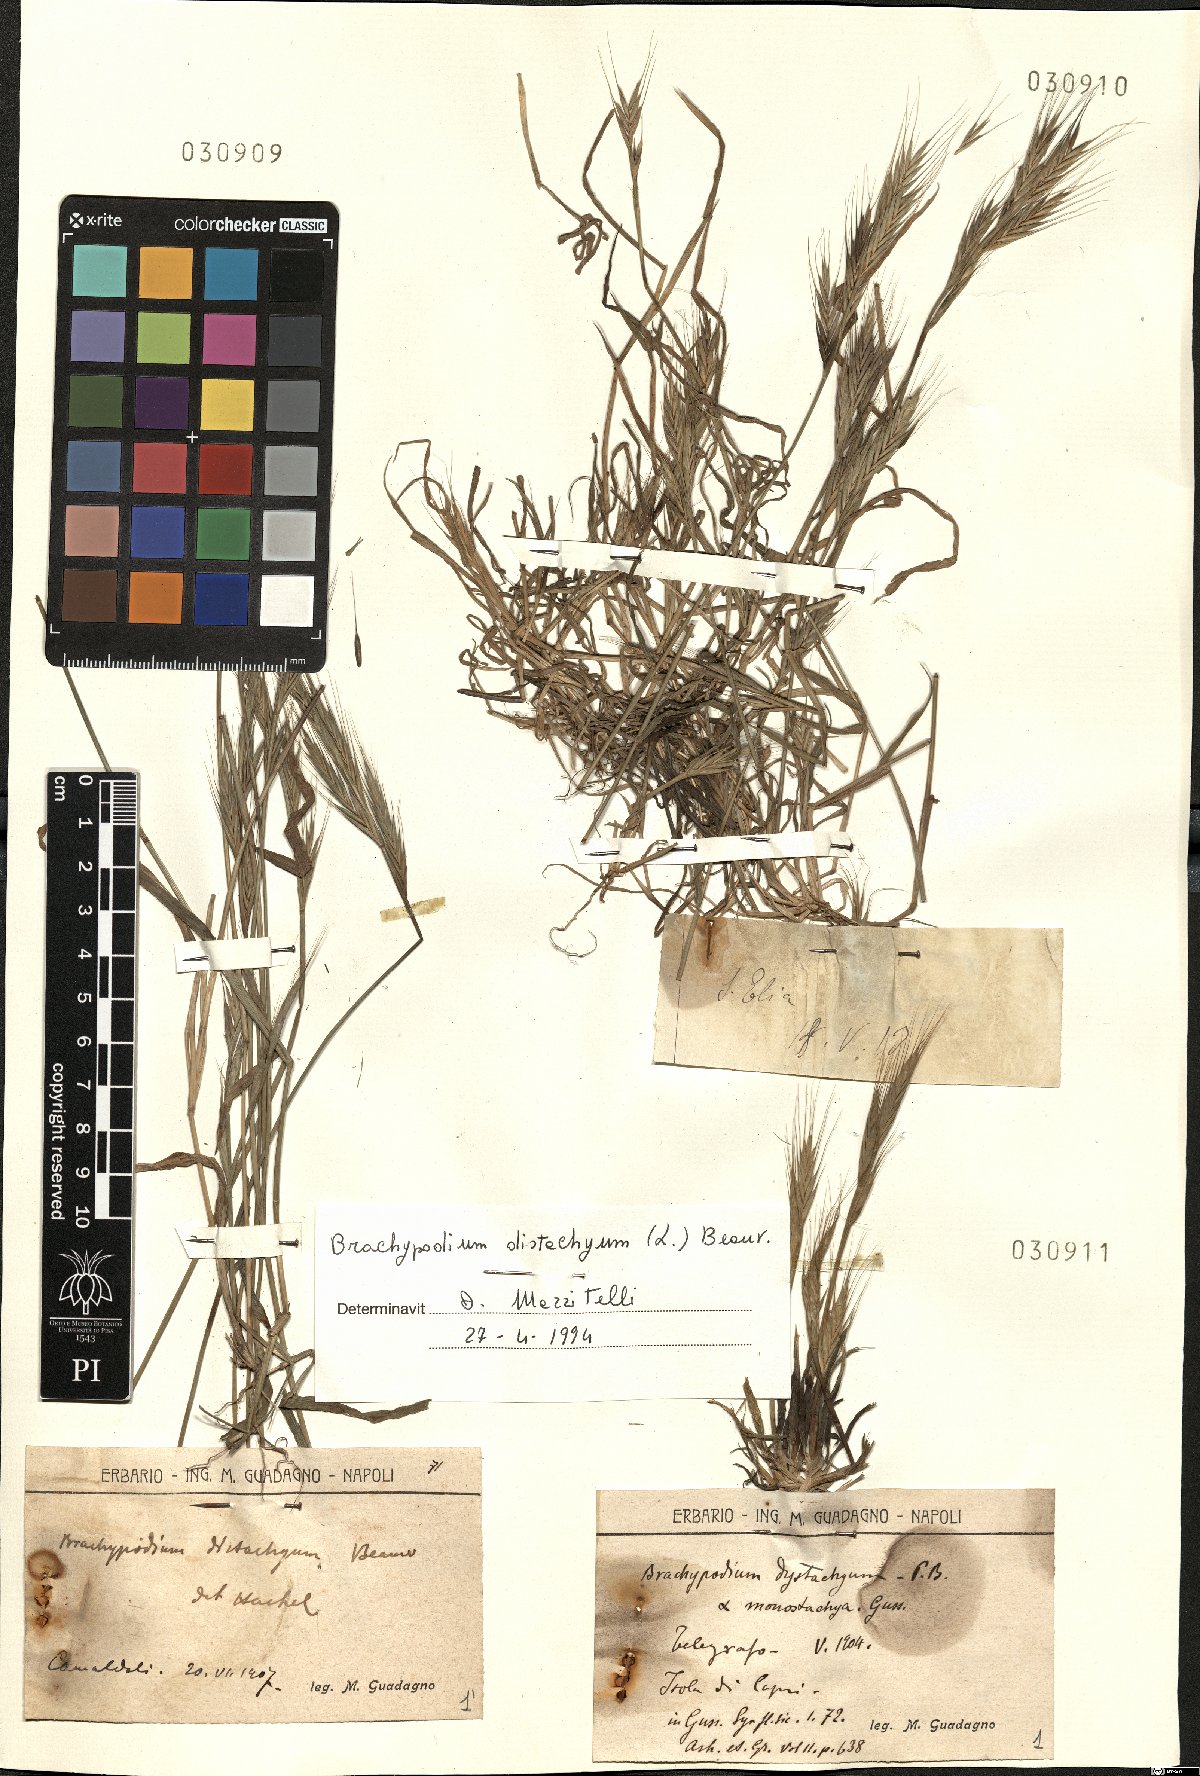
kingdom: Plantae
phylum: Tracheophyta
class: Liliopsida
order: Poales
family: Poaceae
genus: Brachypodium
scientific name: Brachypodium distachyon
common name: Stiff brome
